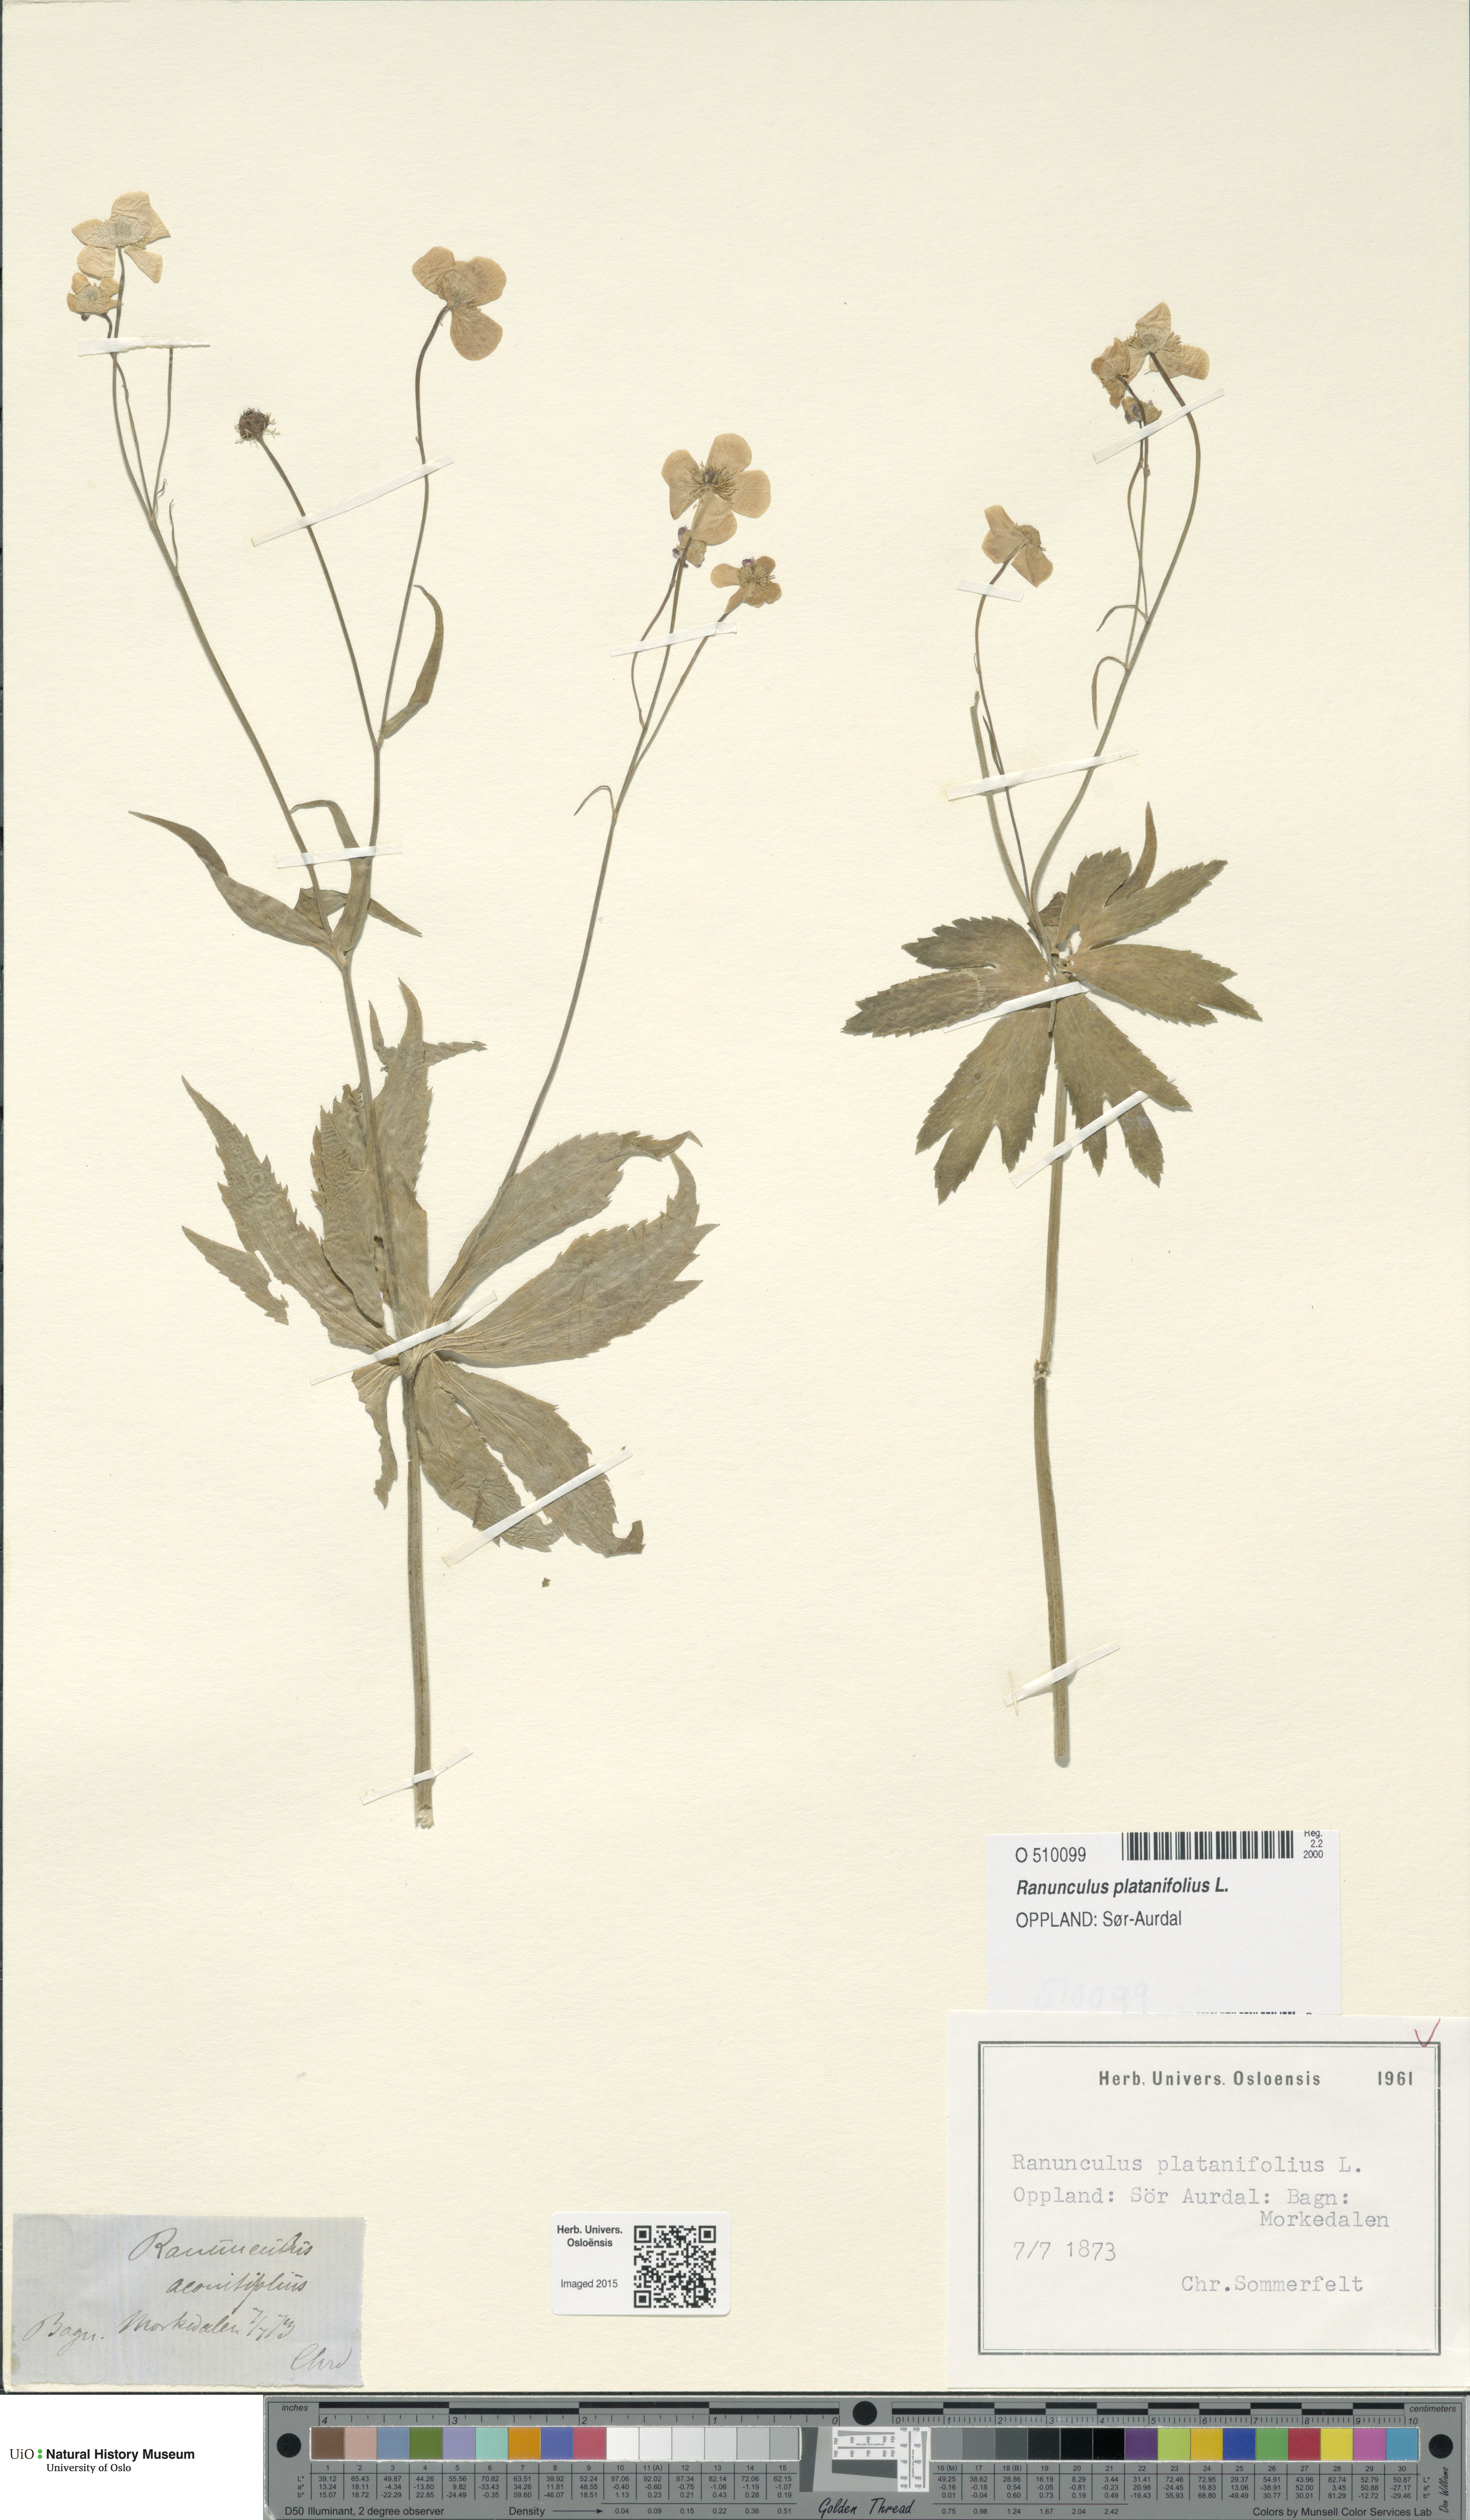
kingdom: Plantae
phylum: Tracheophyta
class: Magnoliopsida
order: Ranunculales
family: Ranunculaceae
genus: Ranunculus
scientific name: Ranunculus platanifolius
